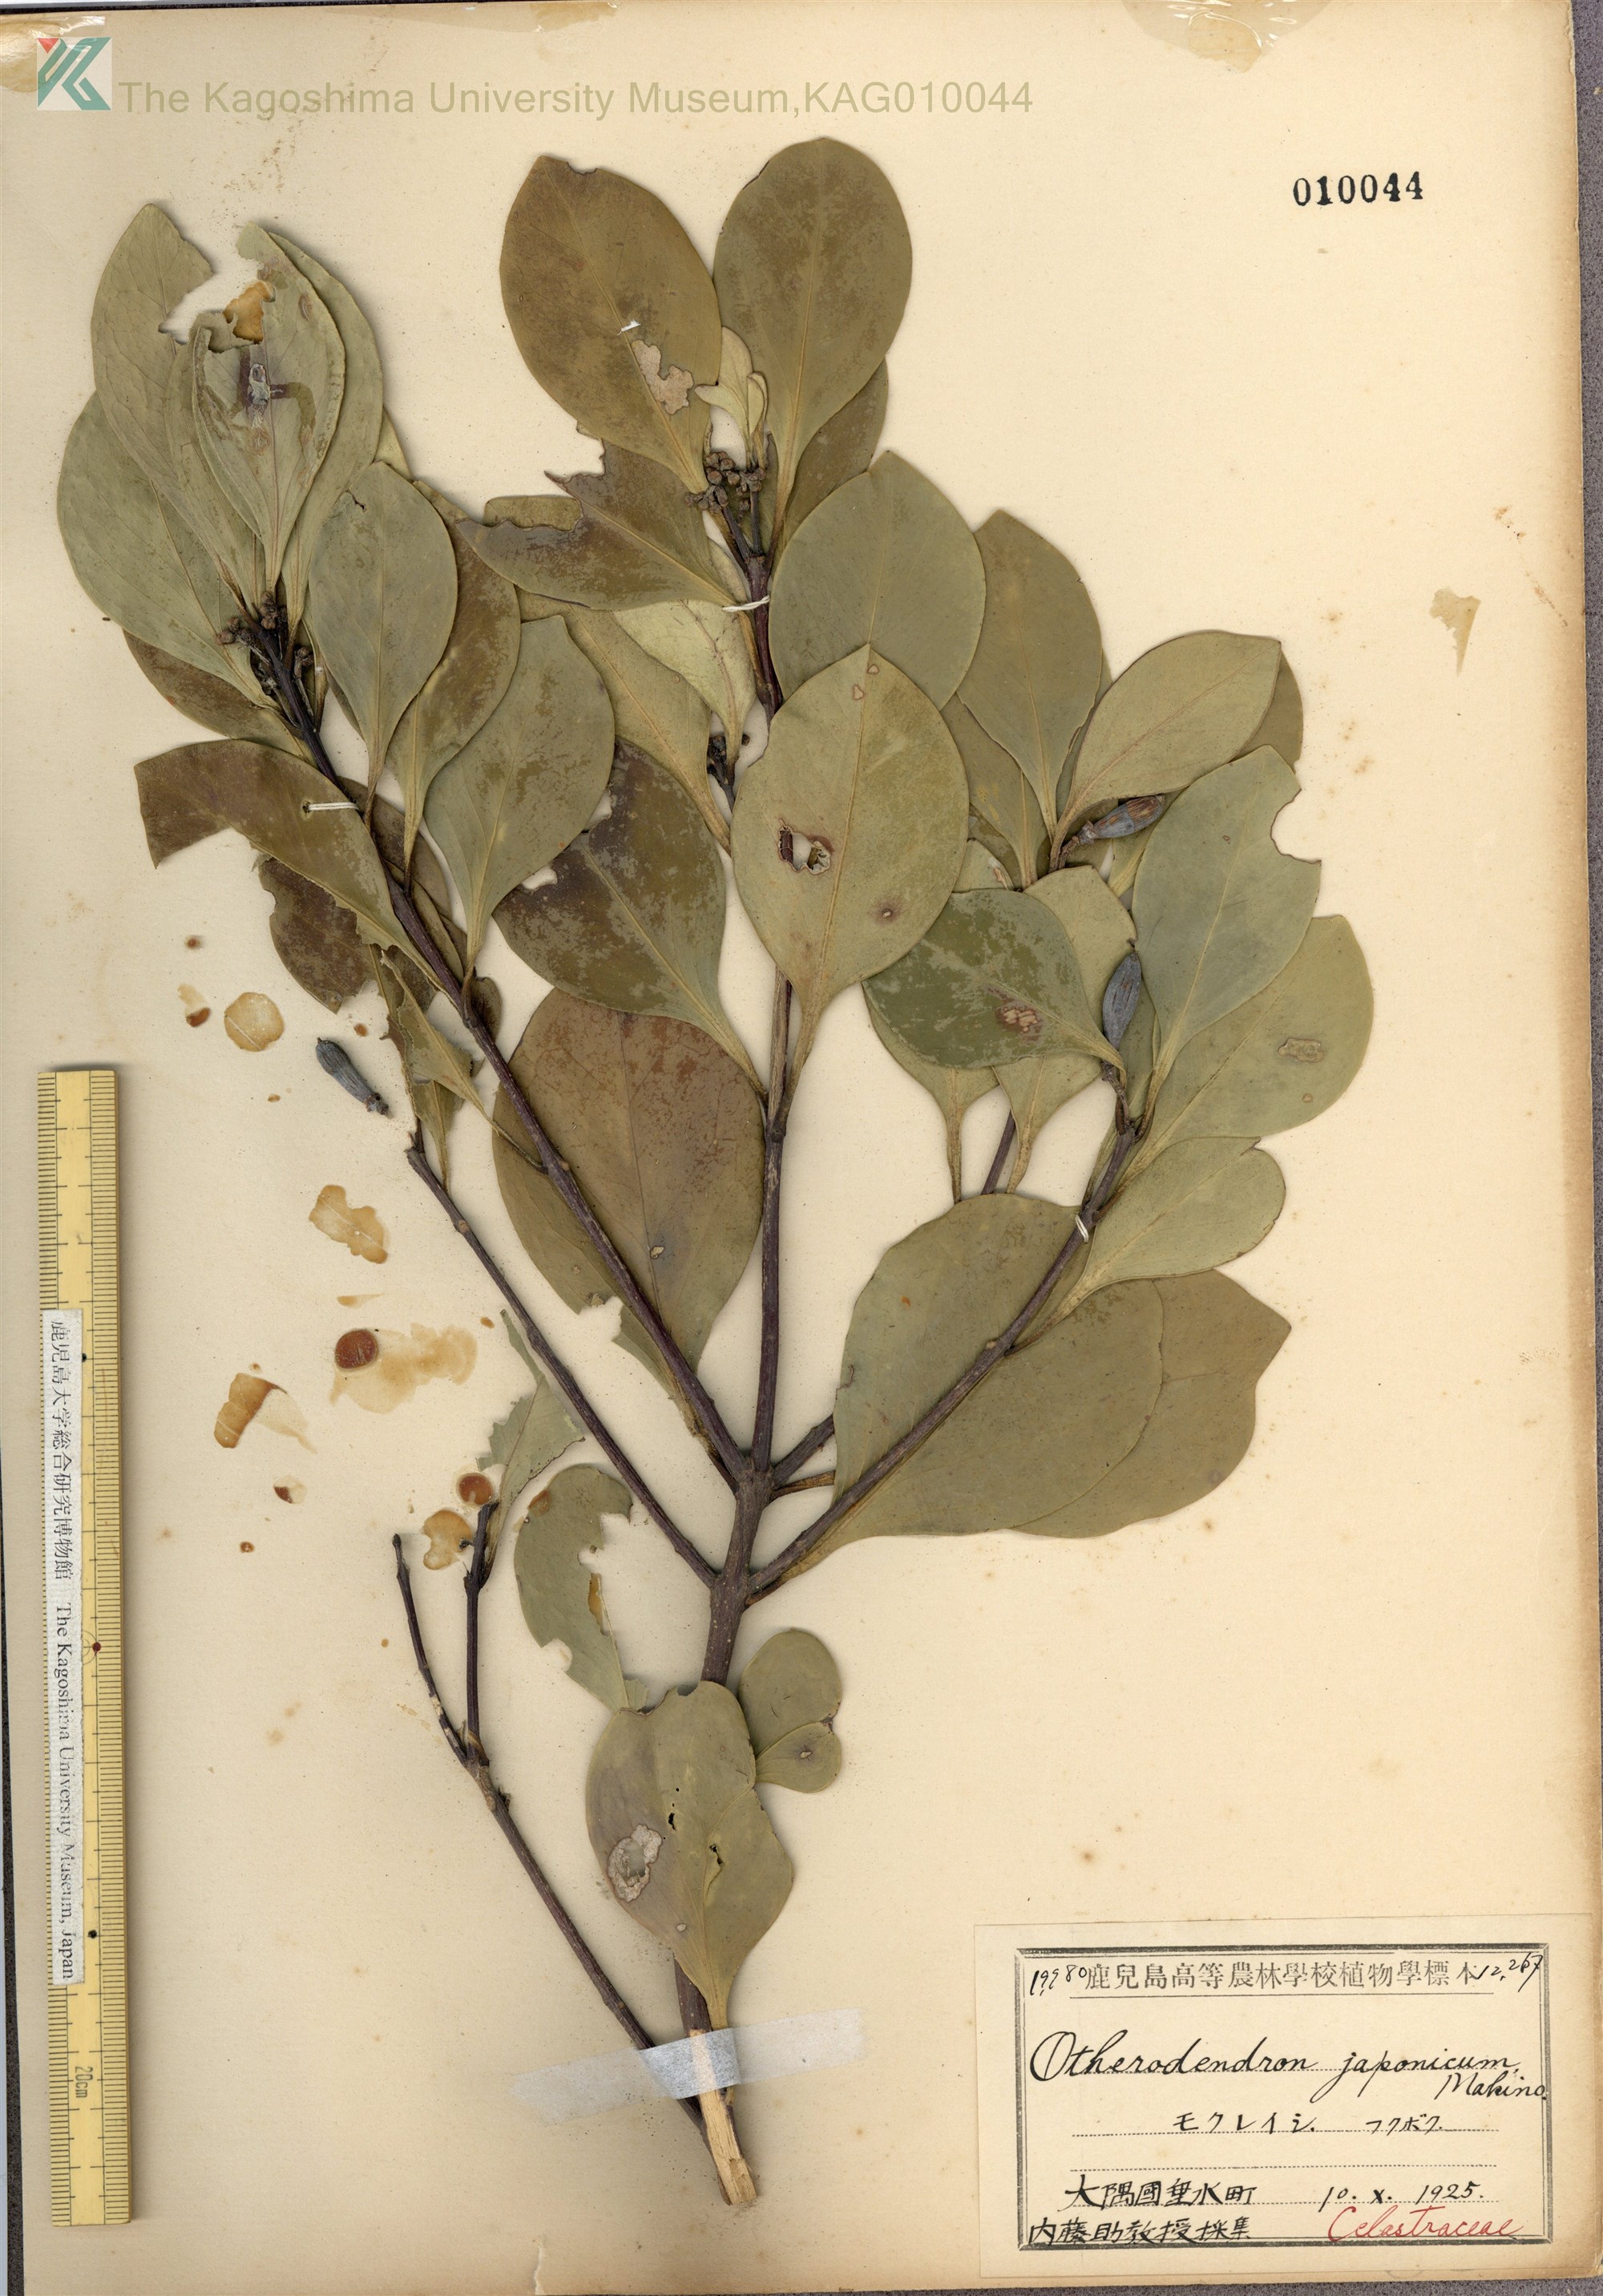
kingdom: Plantae
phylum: Tracheophyta
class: Magnoliopsida
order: Celastrales
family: Celastraceae
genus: Microtropis
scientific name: Microtropis japonica
